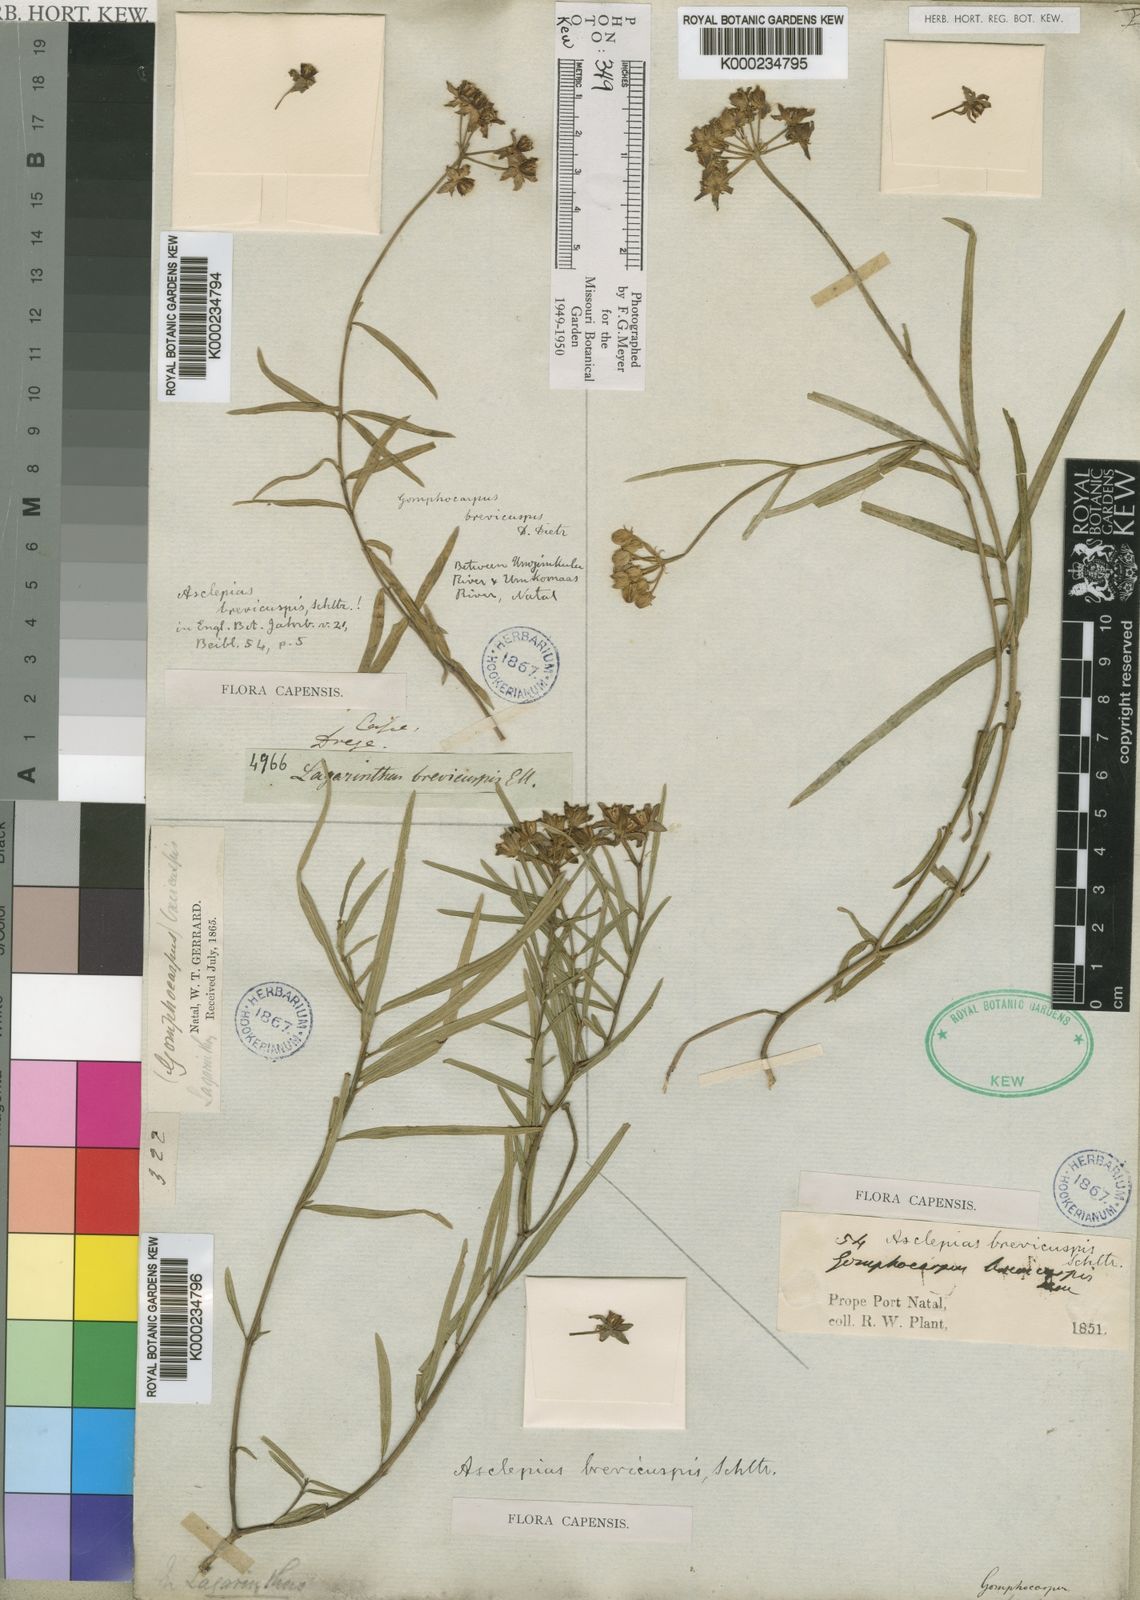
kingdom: Plantae
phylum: Tracheophyta
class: Magnoliopsida
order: Gentianales
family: Apocynaceae
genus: Asclepias
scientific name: Asclepias brevicuspis
